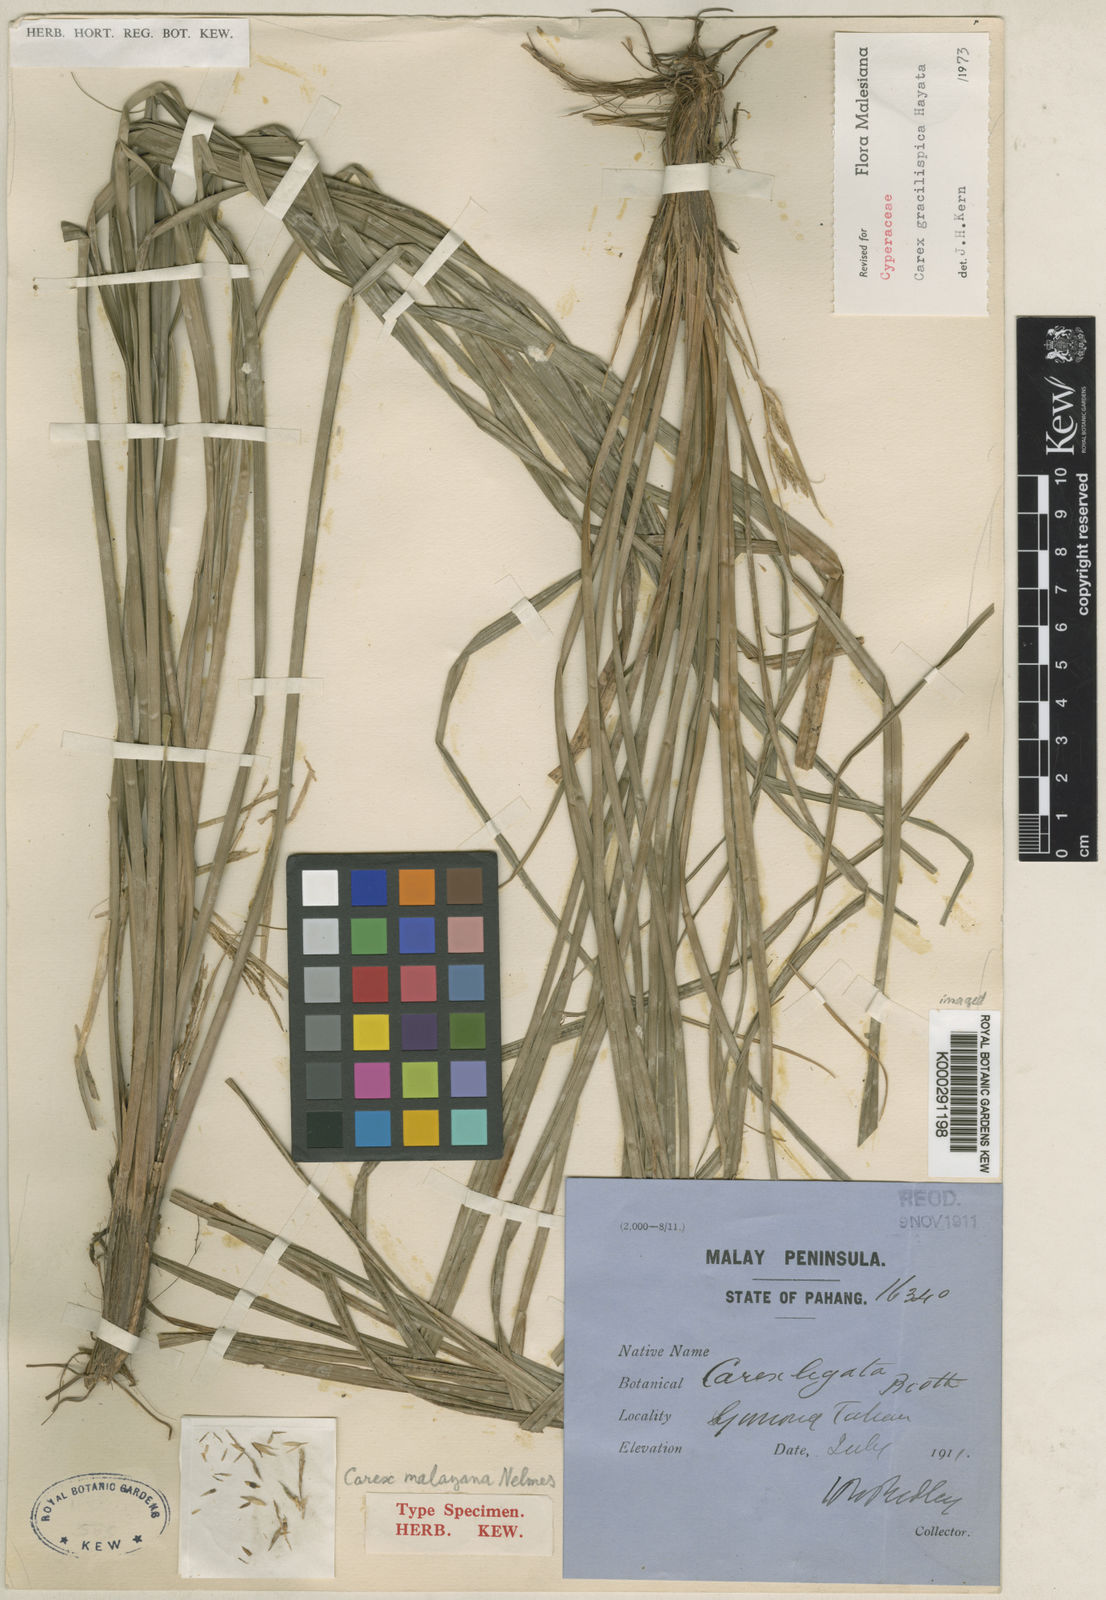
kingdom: Plantae
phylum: Tracheophyta
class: Liliopsida
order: Poales
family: Cyperaceae
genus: Carex
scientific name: Carex truncatigluma
